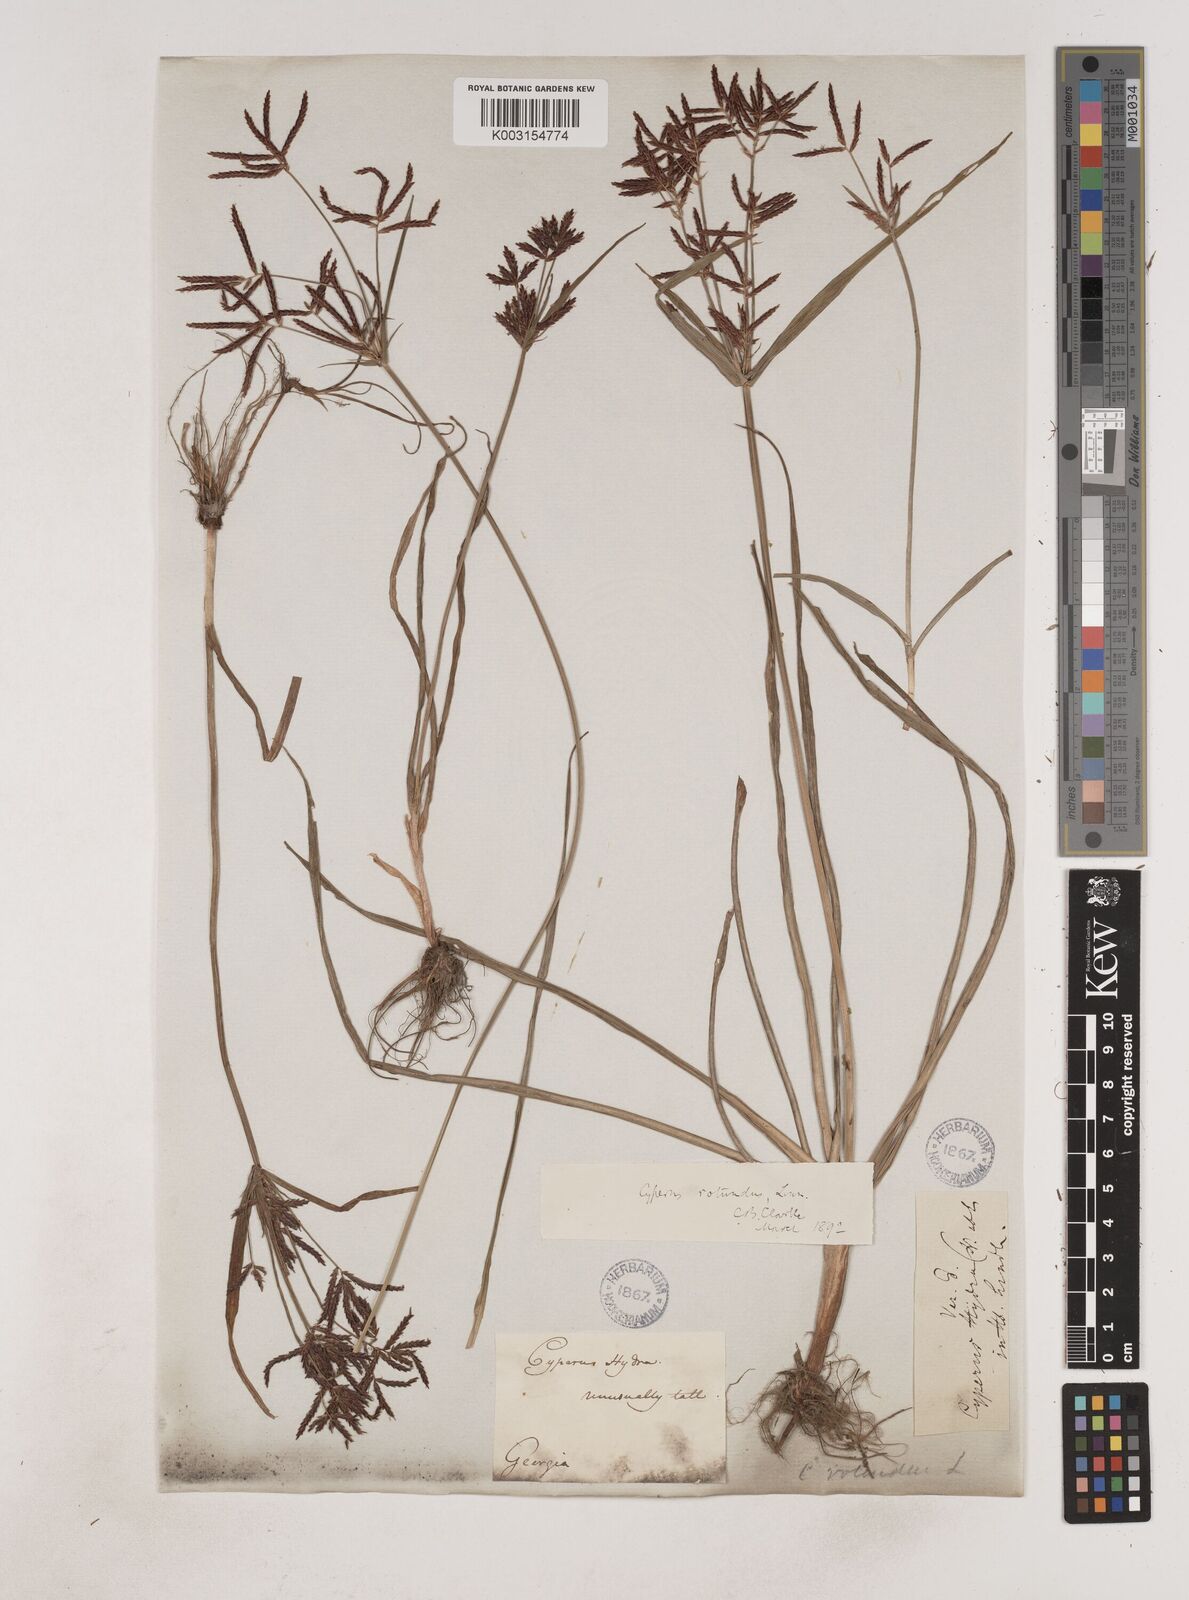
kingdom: Plantae
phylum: Tracheophyta
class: Liliopsida
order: Poales
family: Cyperaceae
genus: Cyperus
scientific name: Cyperus rotundus
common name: Nutgrass
